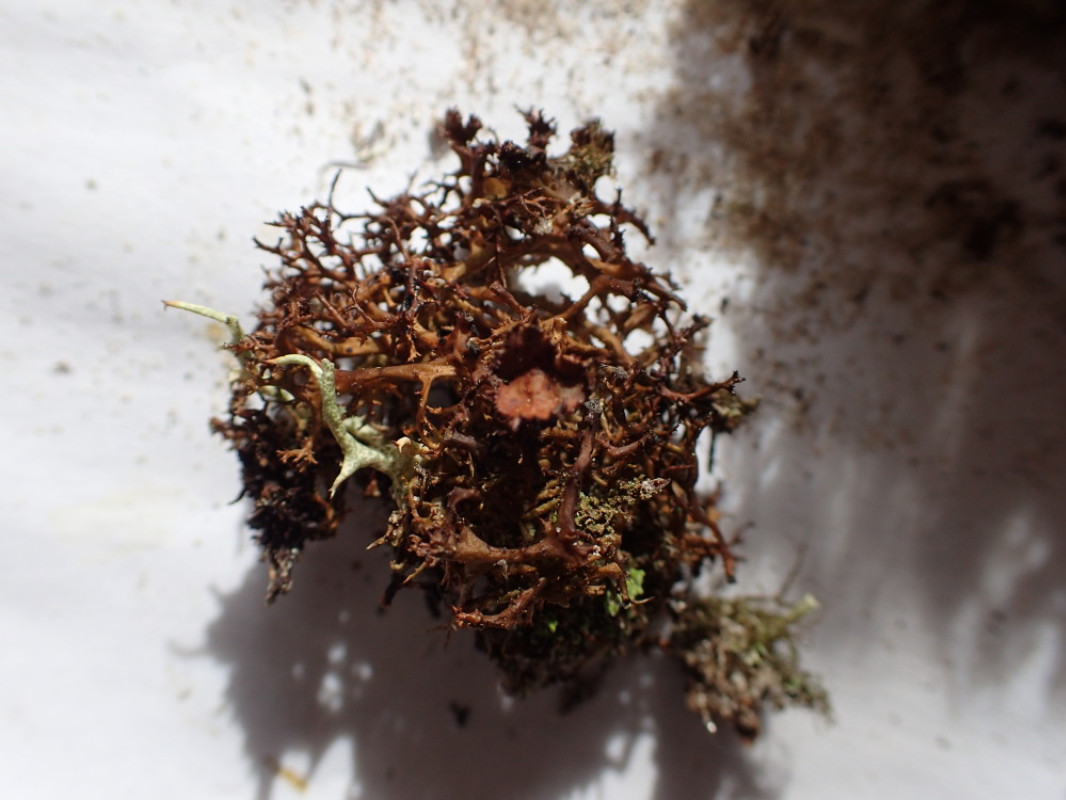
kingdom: Fungi
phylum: Ascomycota
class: Lecanoromycetes
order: Lecanorales
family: Parmeliaceae
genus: Cetraria
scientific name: Cetraria muricata
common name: tue-tjørnelav
